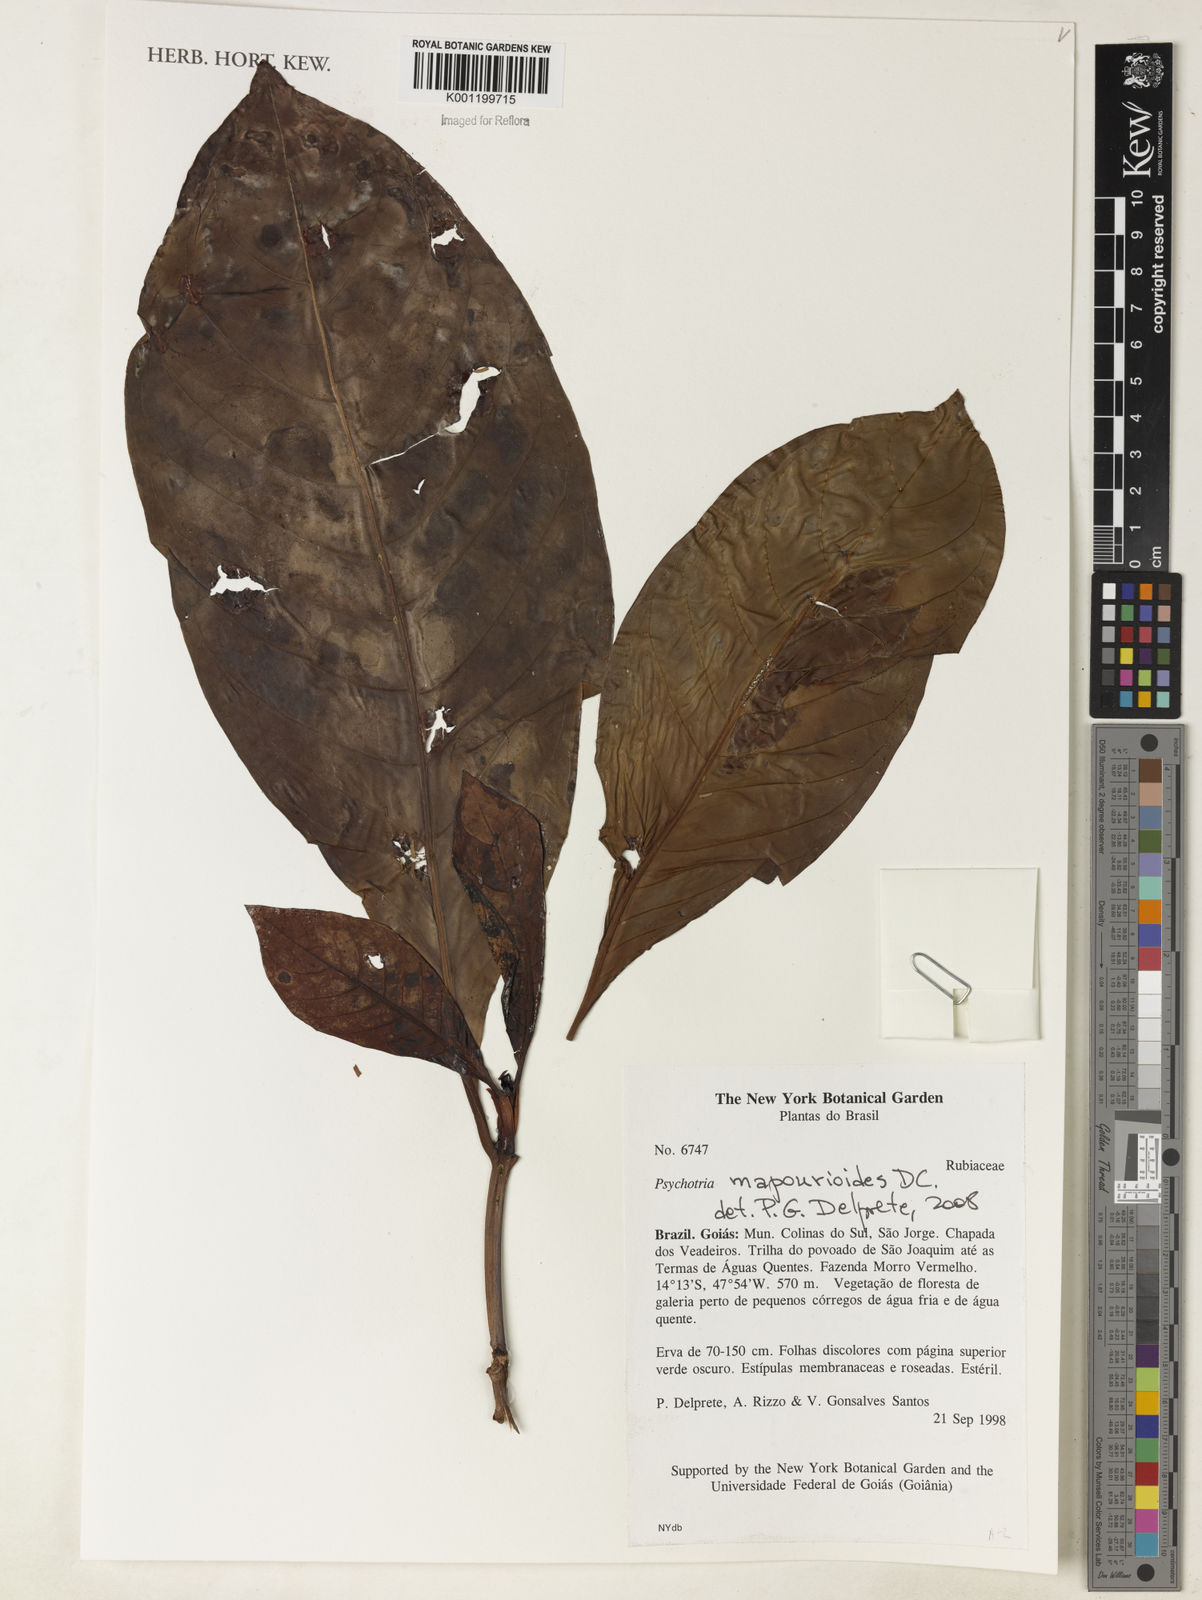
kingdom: Plantae
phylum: Tracheophyta
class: Magnoliopsida
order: Gentianales
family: Rubiaceae
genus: Psychotria
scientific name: Psychotria pedunculosa
